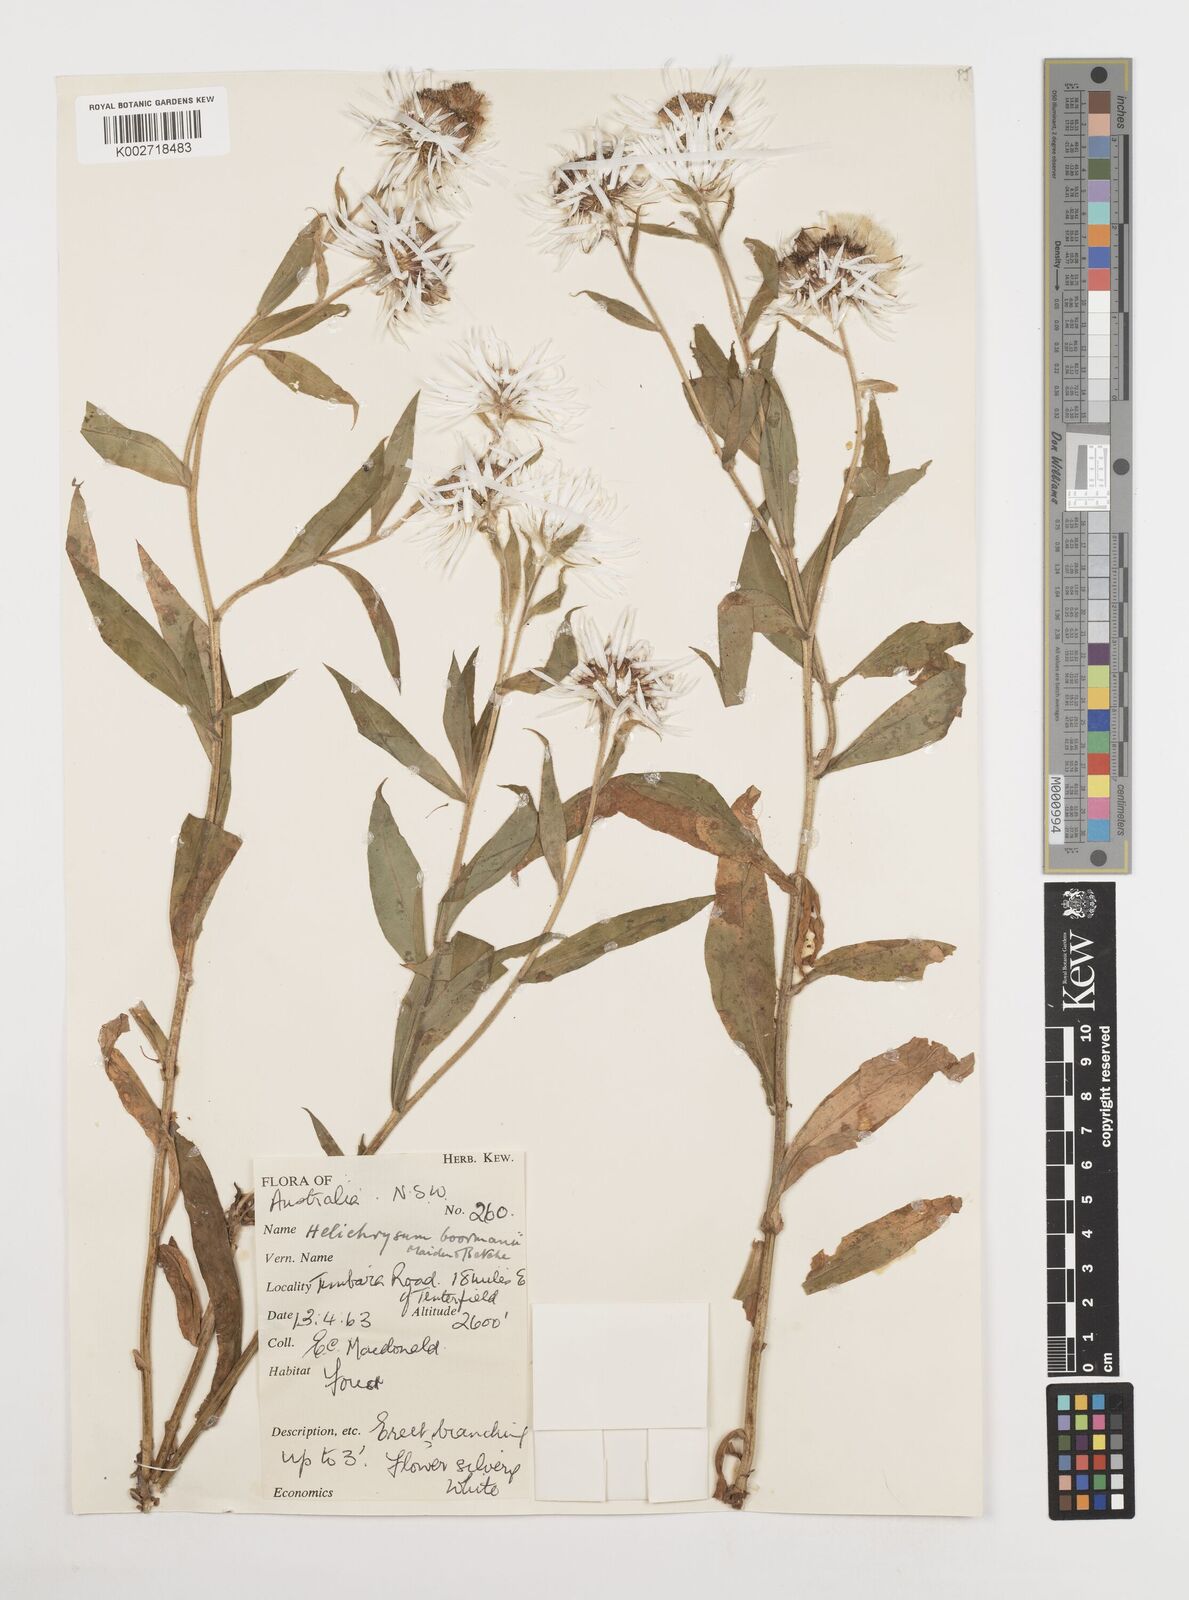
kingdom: Plantae
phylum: Tracheophyta
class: Magnoliopsida
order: Asterales
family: Asteraceae
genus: Leucozoma
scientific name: Leucozoma boormanii
